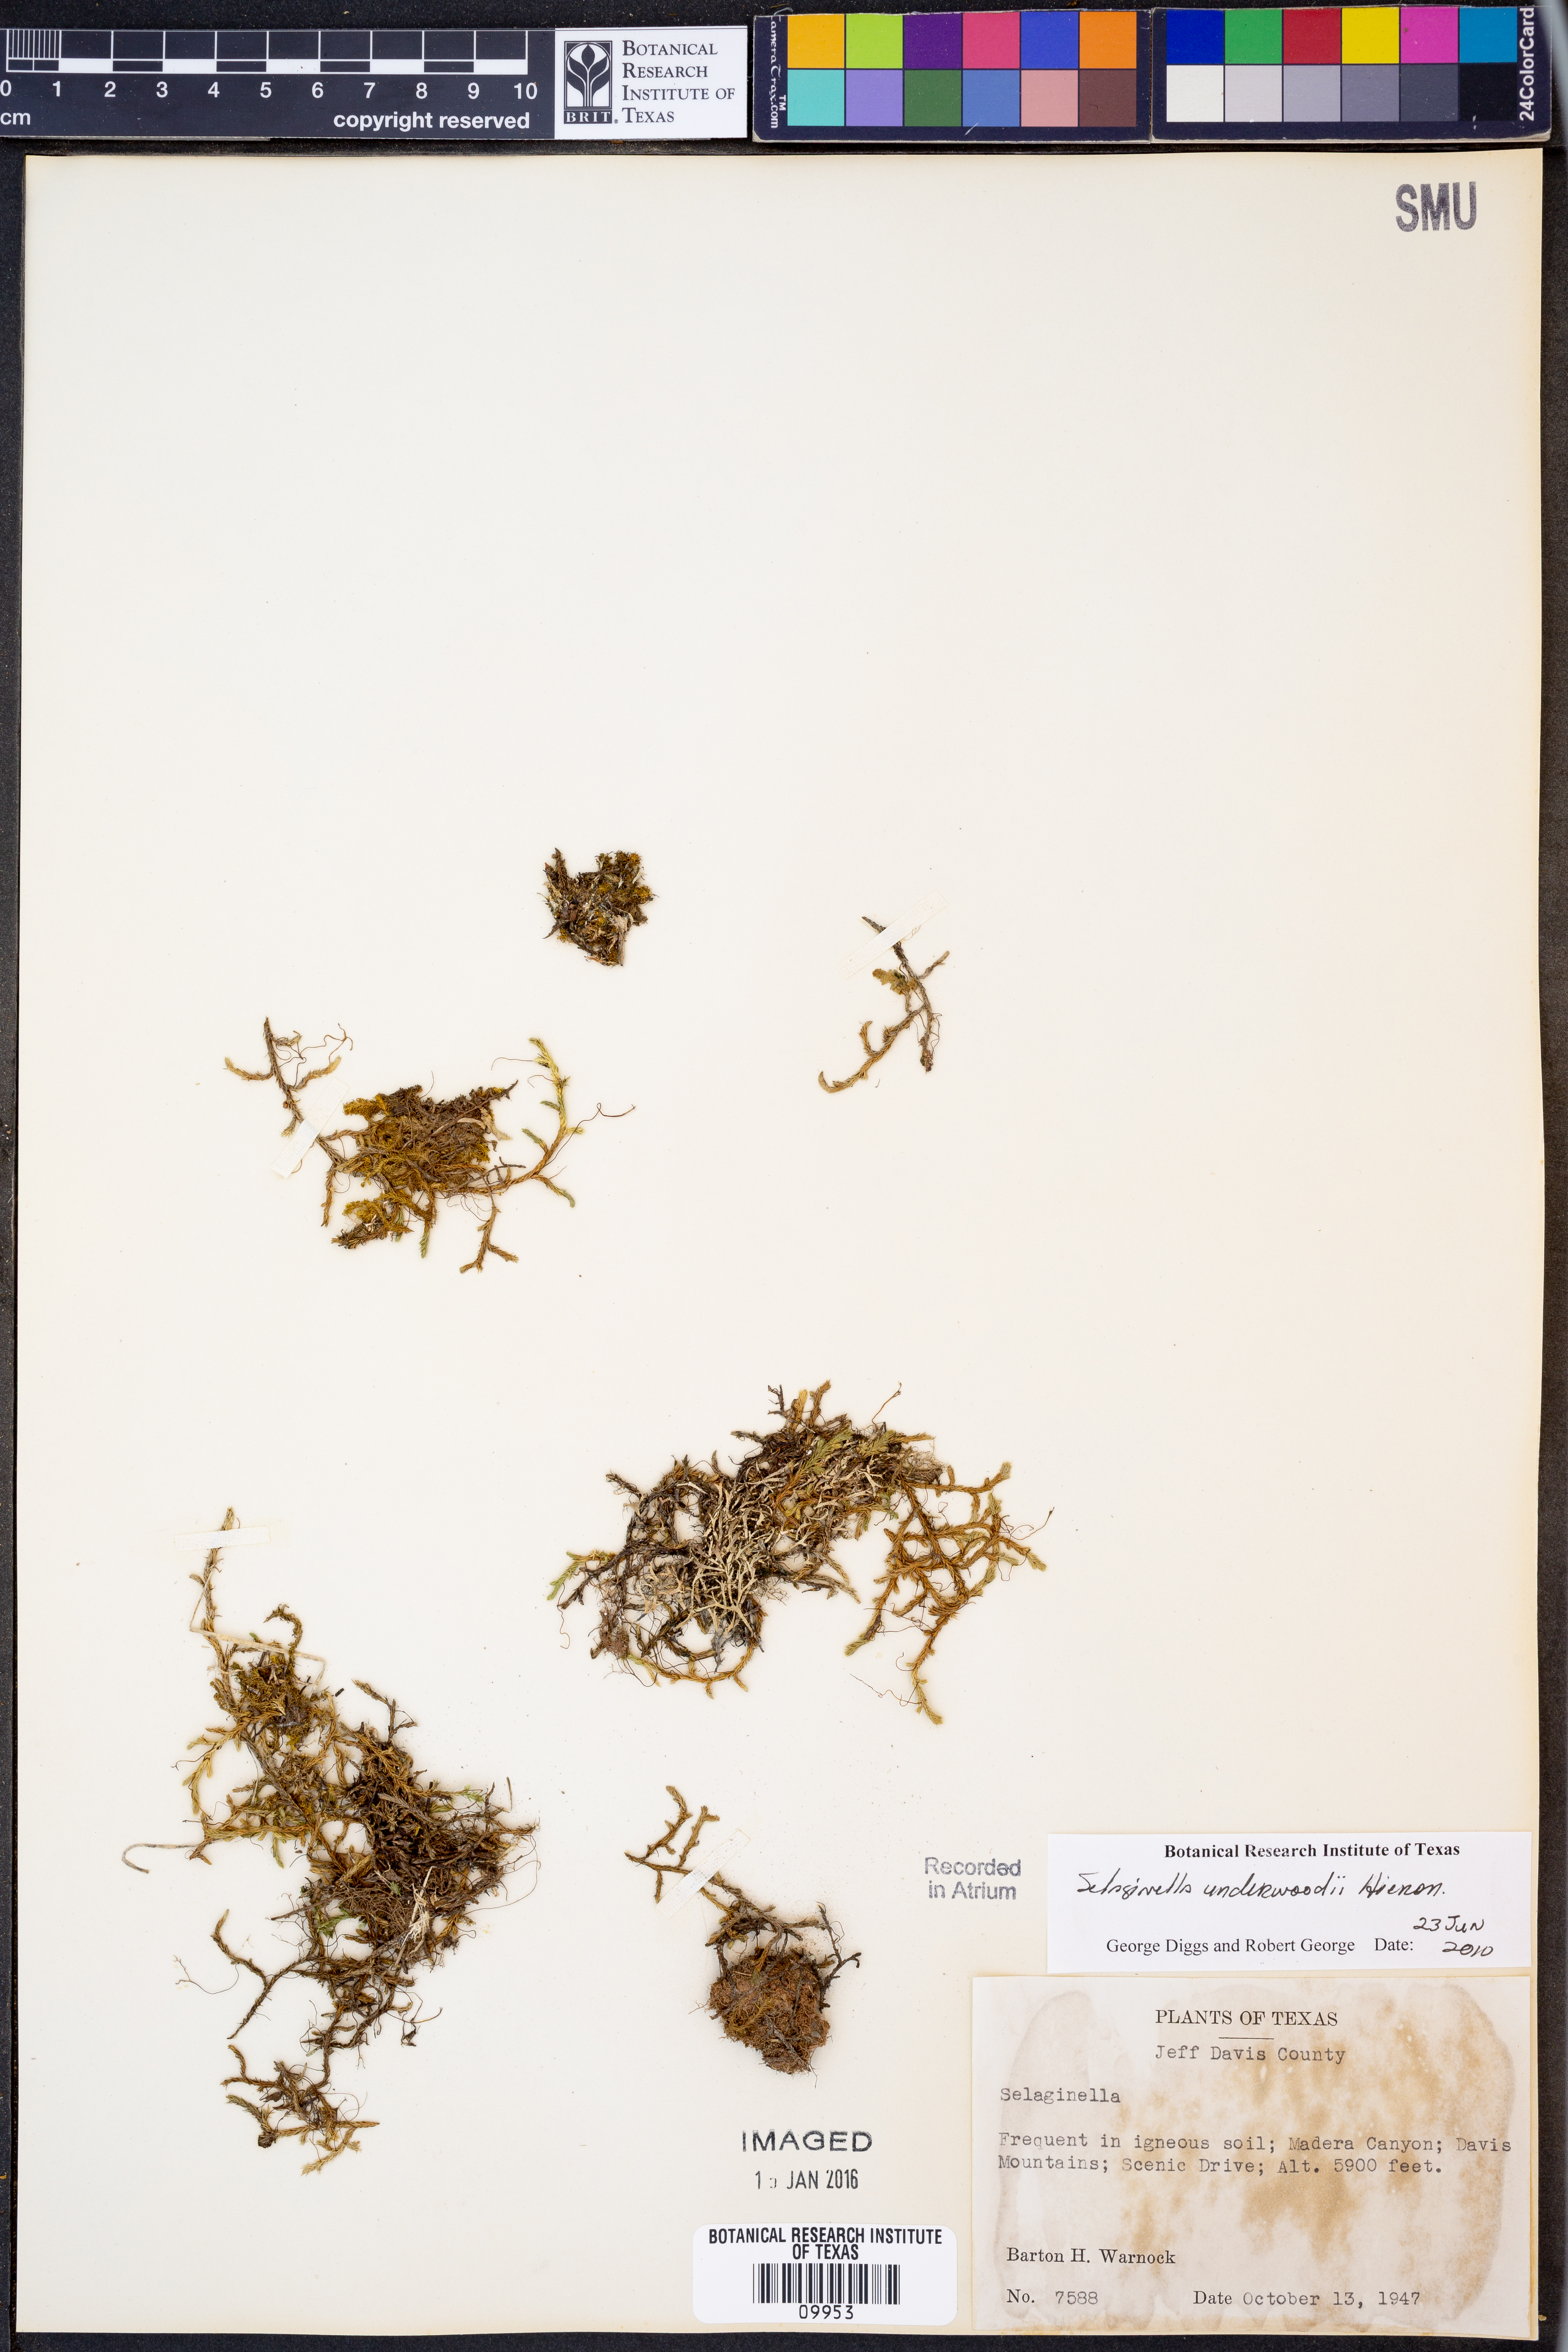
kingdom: Plantae
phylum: Tracheophyta
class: Lycopodiopsida
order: Selaginellales
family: Selaginellaceae
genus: Selaginella
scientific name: Selaginella underwoodii
